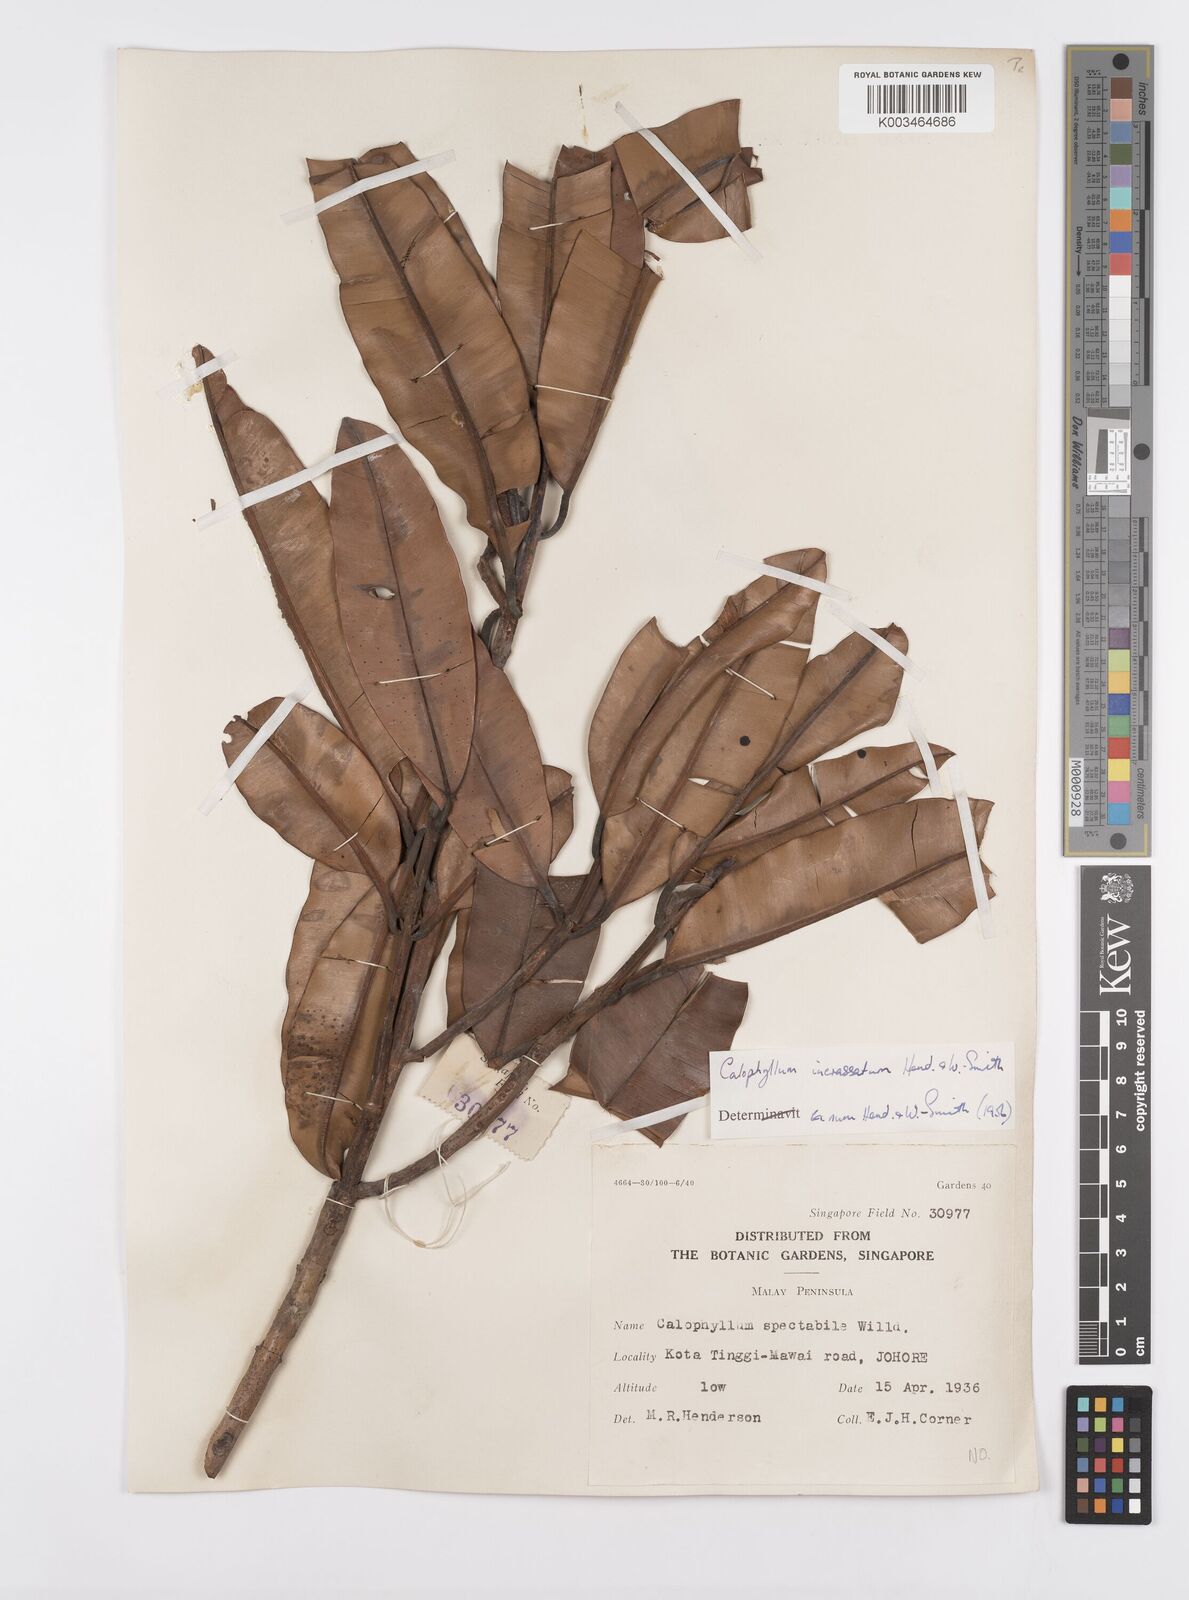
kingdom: Plantae
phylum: Tracheophyta
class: Magnoliopsida
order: Malpighiales
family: Calophyllaceae
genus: Calophyllum
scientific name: Calophyllum wallichiana
